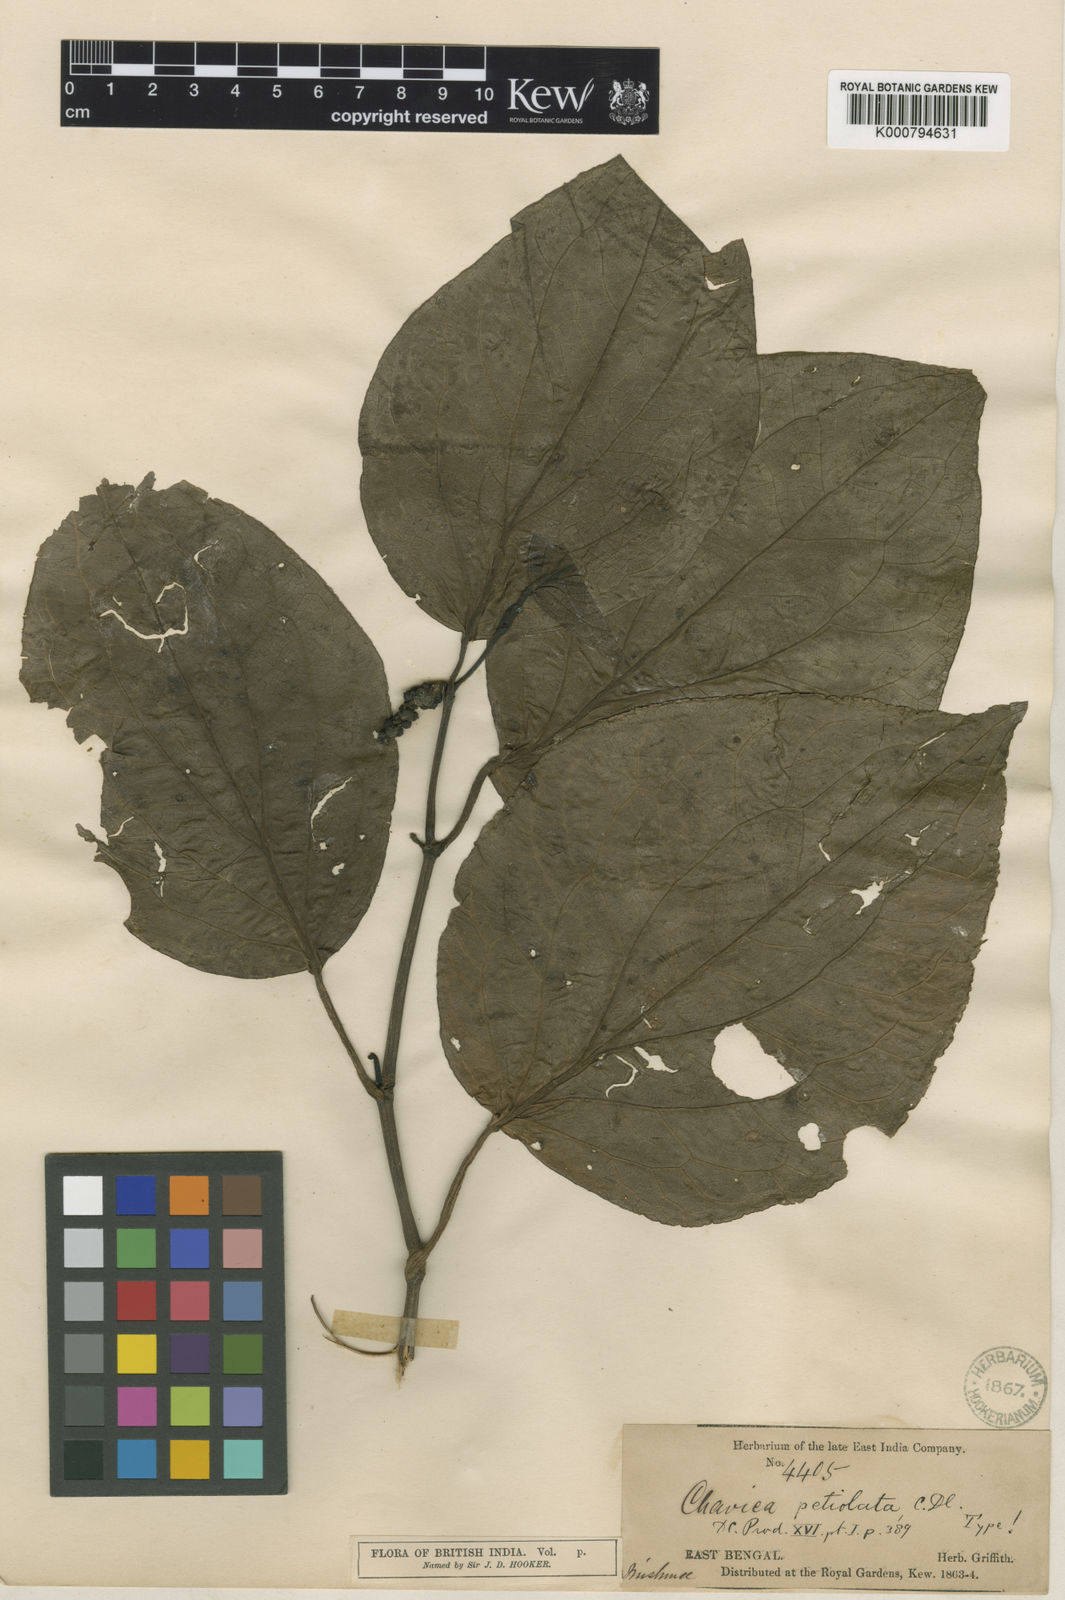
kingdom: Plantae
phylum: Tracheophyta
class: Magnoliopsida
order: Piperales
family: Piperaceae
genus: Piper
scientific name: Piper thomsonii
